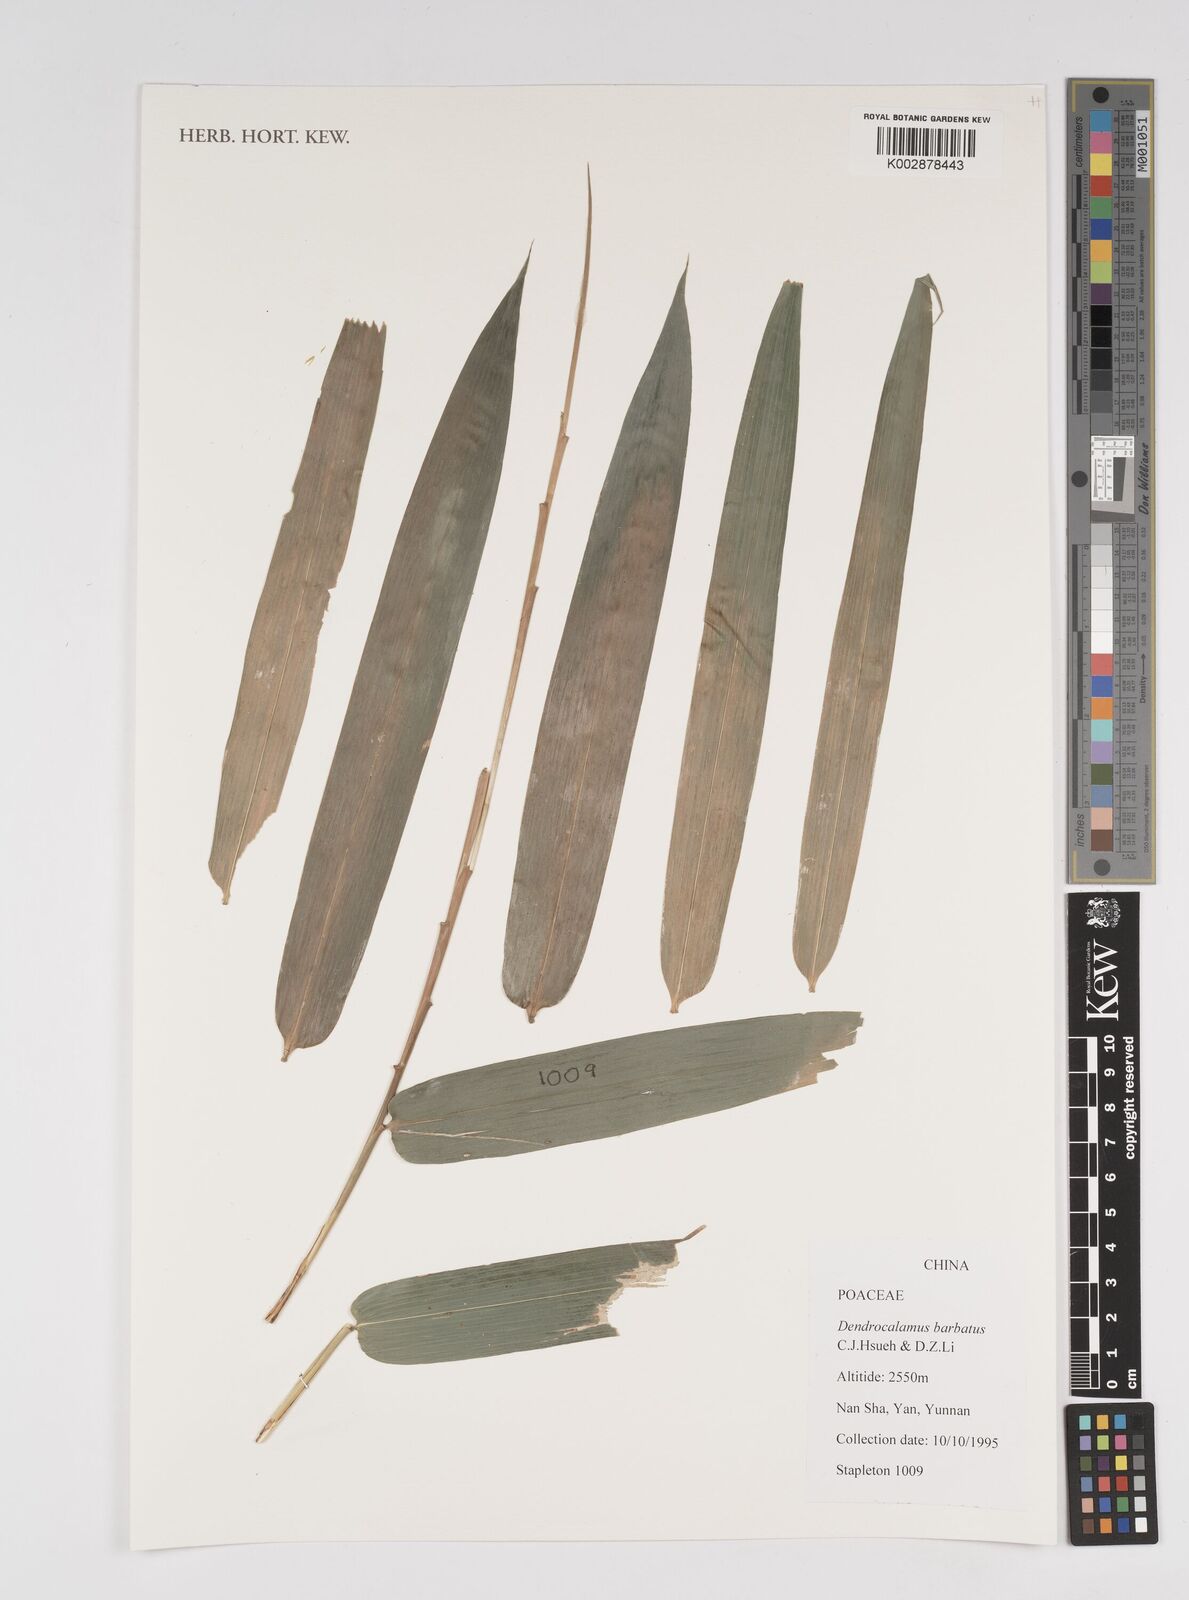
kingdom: Plantae
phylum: Tracheophyta
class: Liliopsida
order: Poales
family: Poaceae
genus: Dendrocalamus
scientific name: Dendrocalamus barbatus
